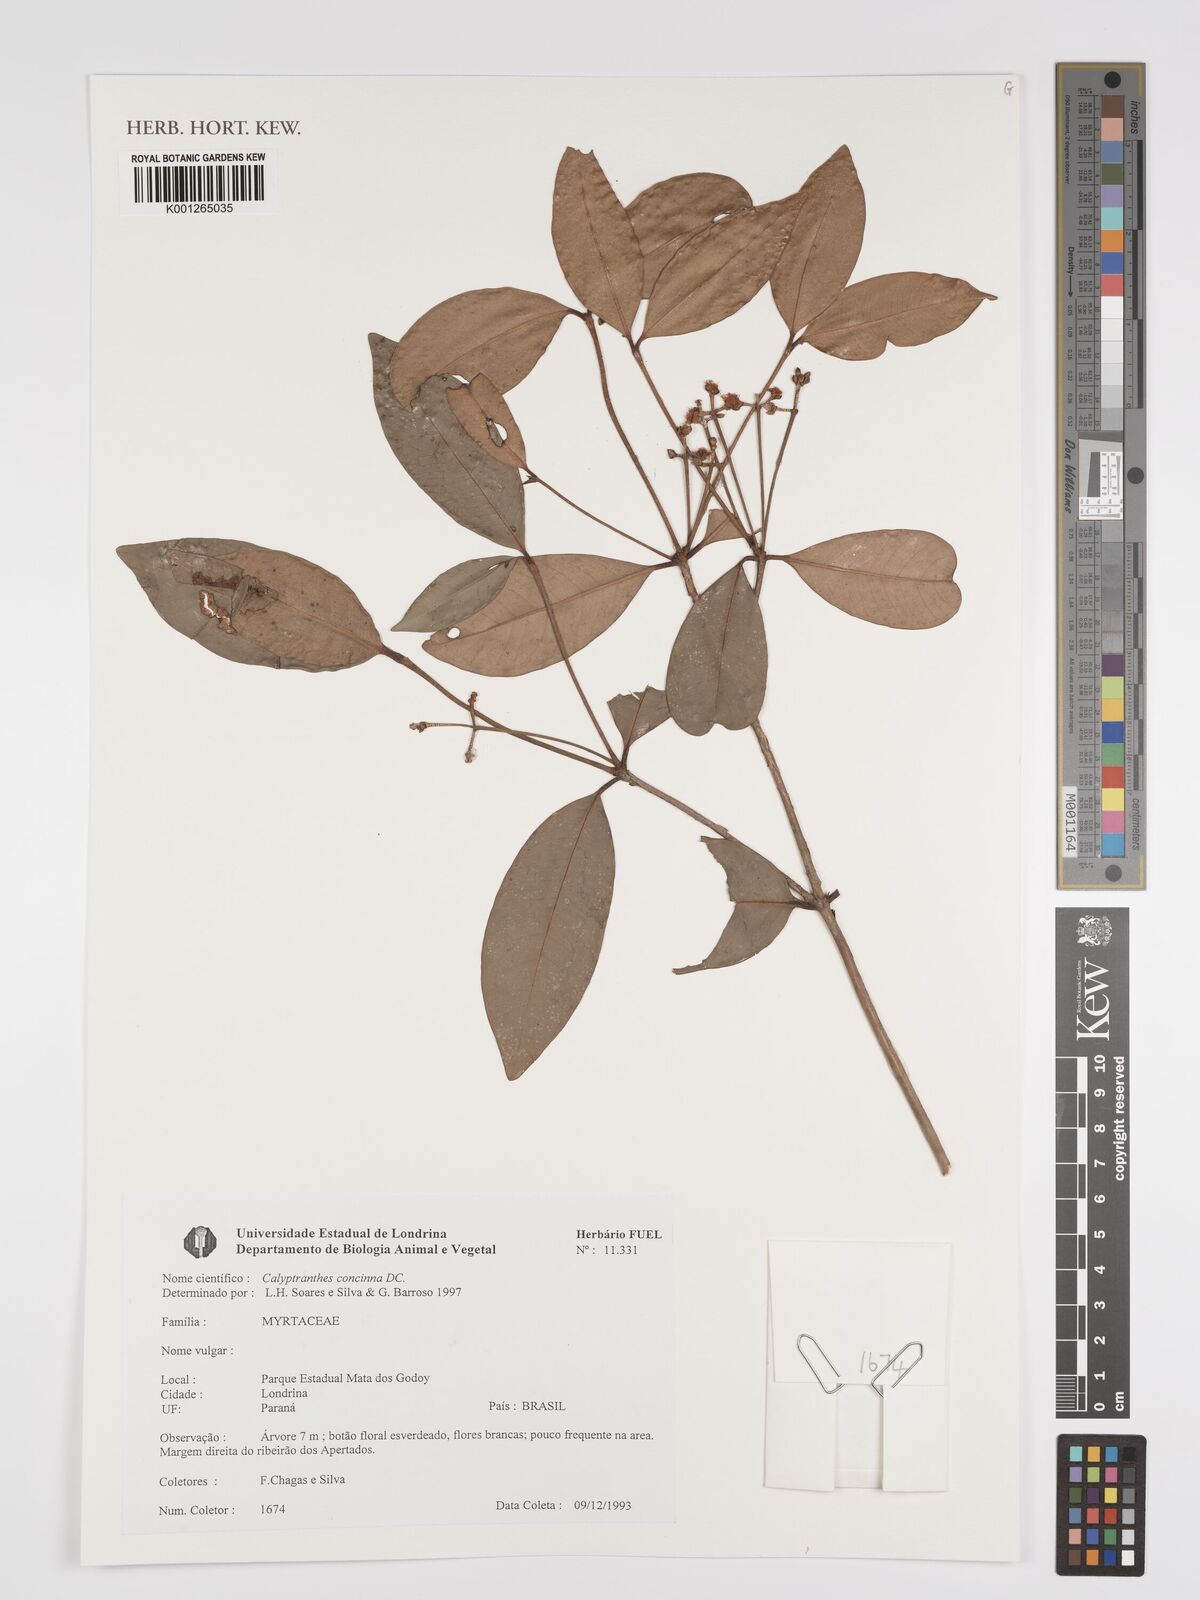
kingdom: Plantae
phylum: Tracheophyta
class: Magnoliopsida
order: Myrtales
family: Myrtaceae
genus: Myrcia
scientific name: Myrcia cruciflora
